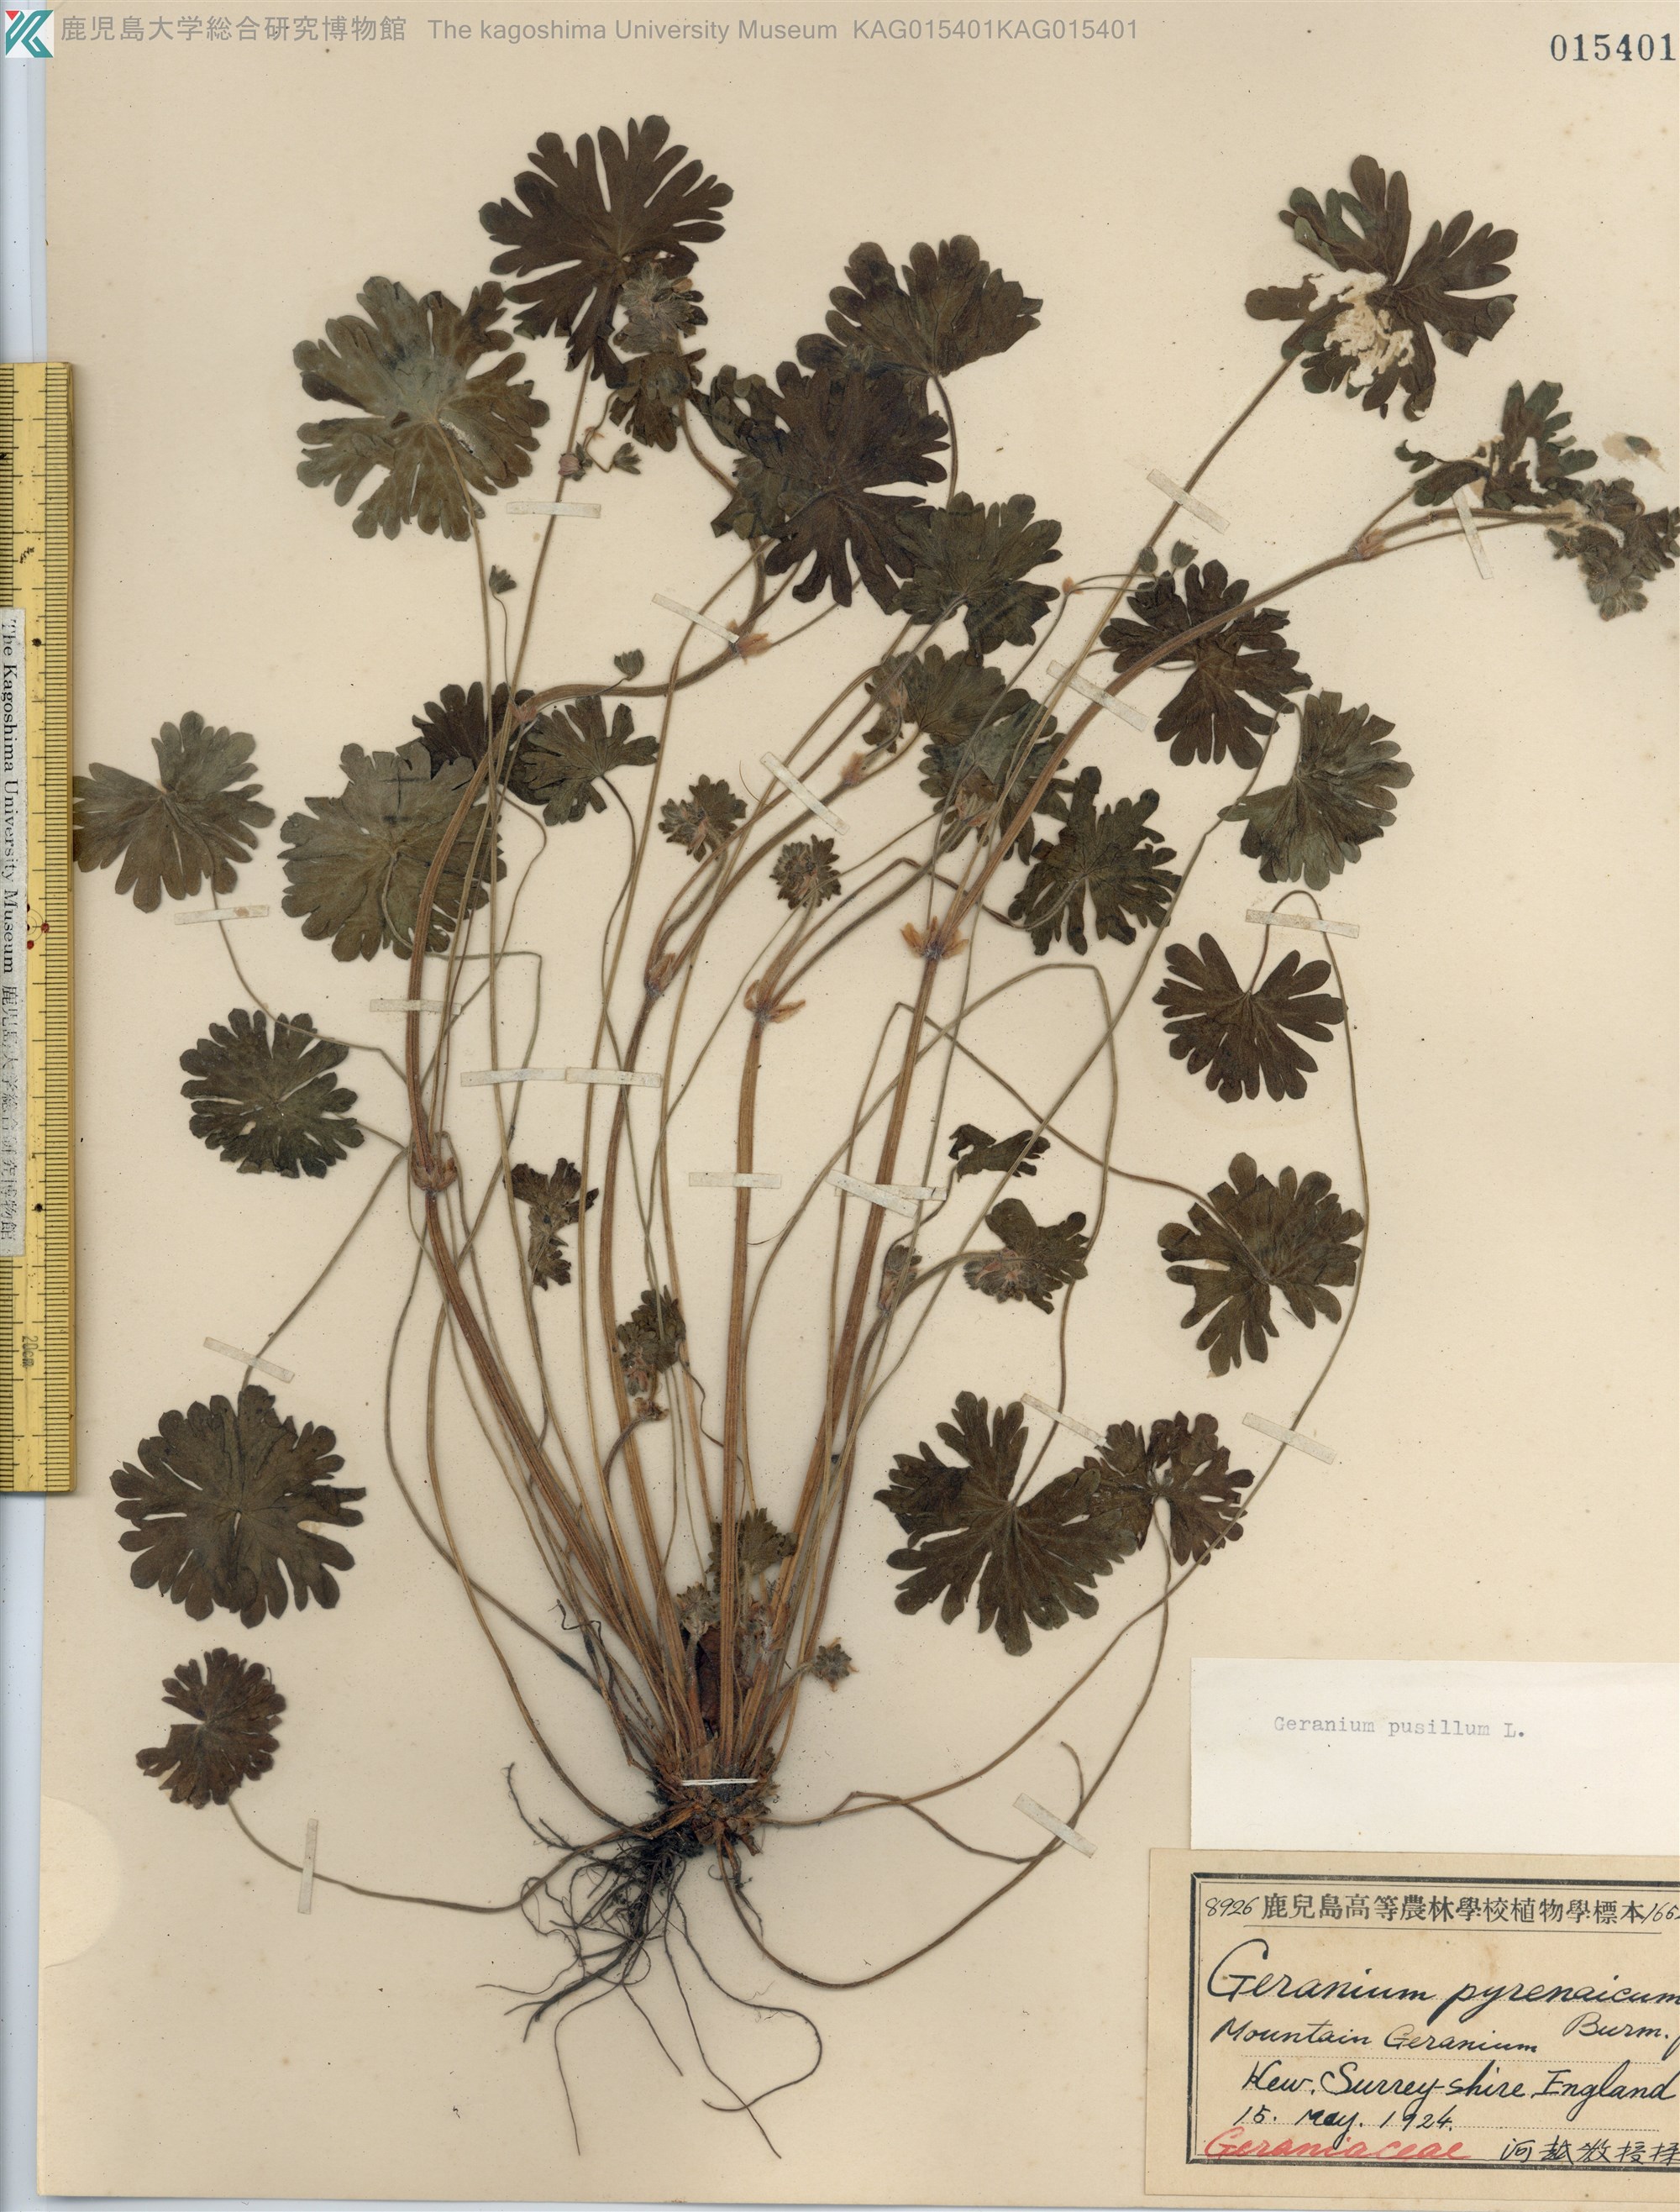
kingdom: Plantae
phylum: Tracheophyta
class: Magnoliopsida
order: Geraniales
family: Geraniaceae
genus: Geranium
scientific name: Geranium pusillum
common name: Small geranium
